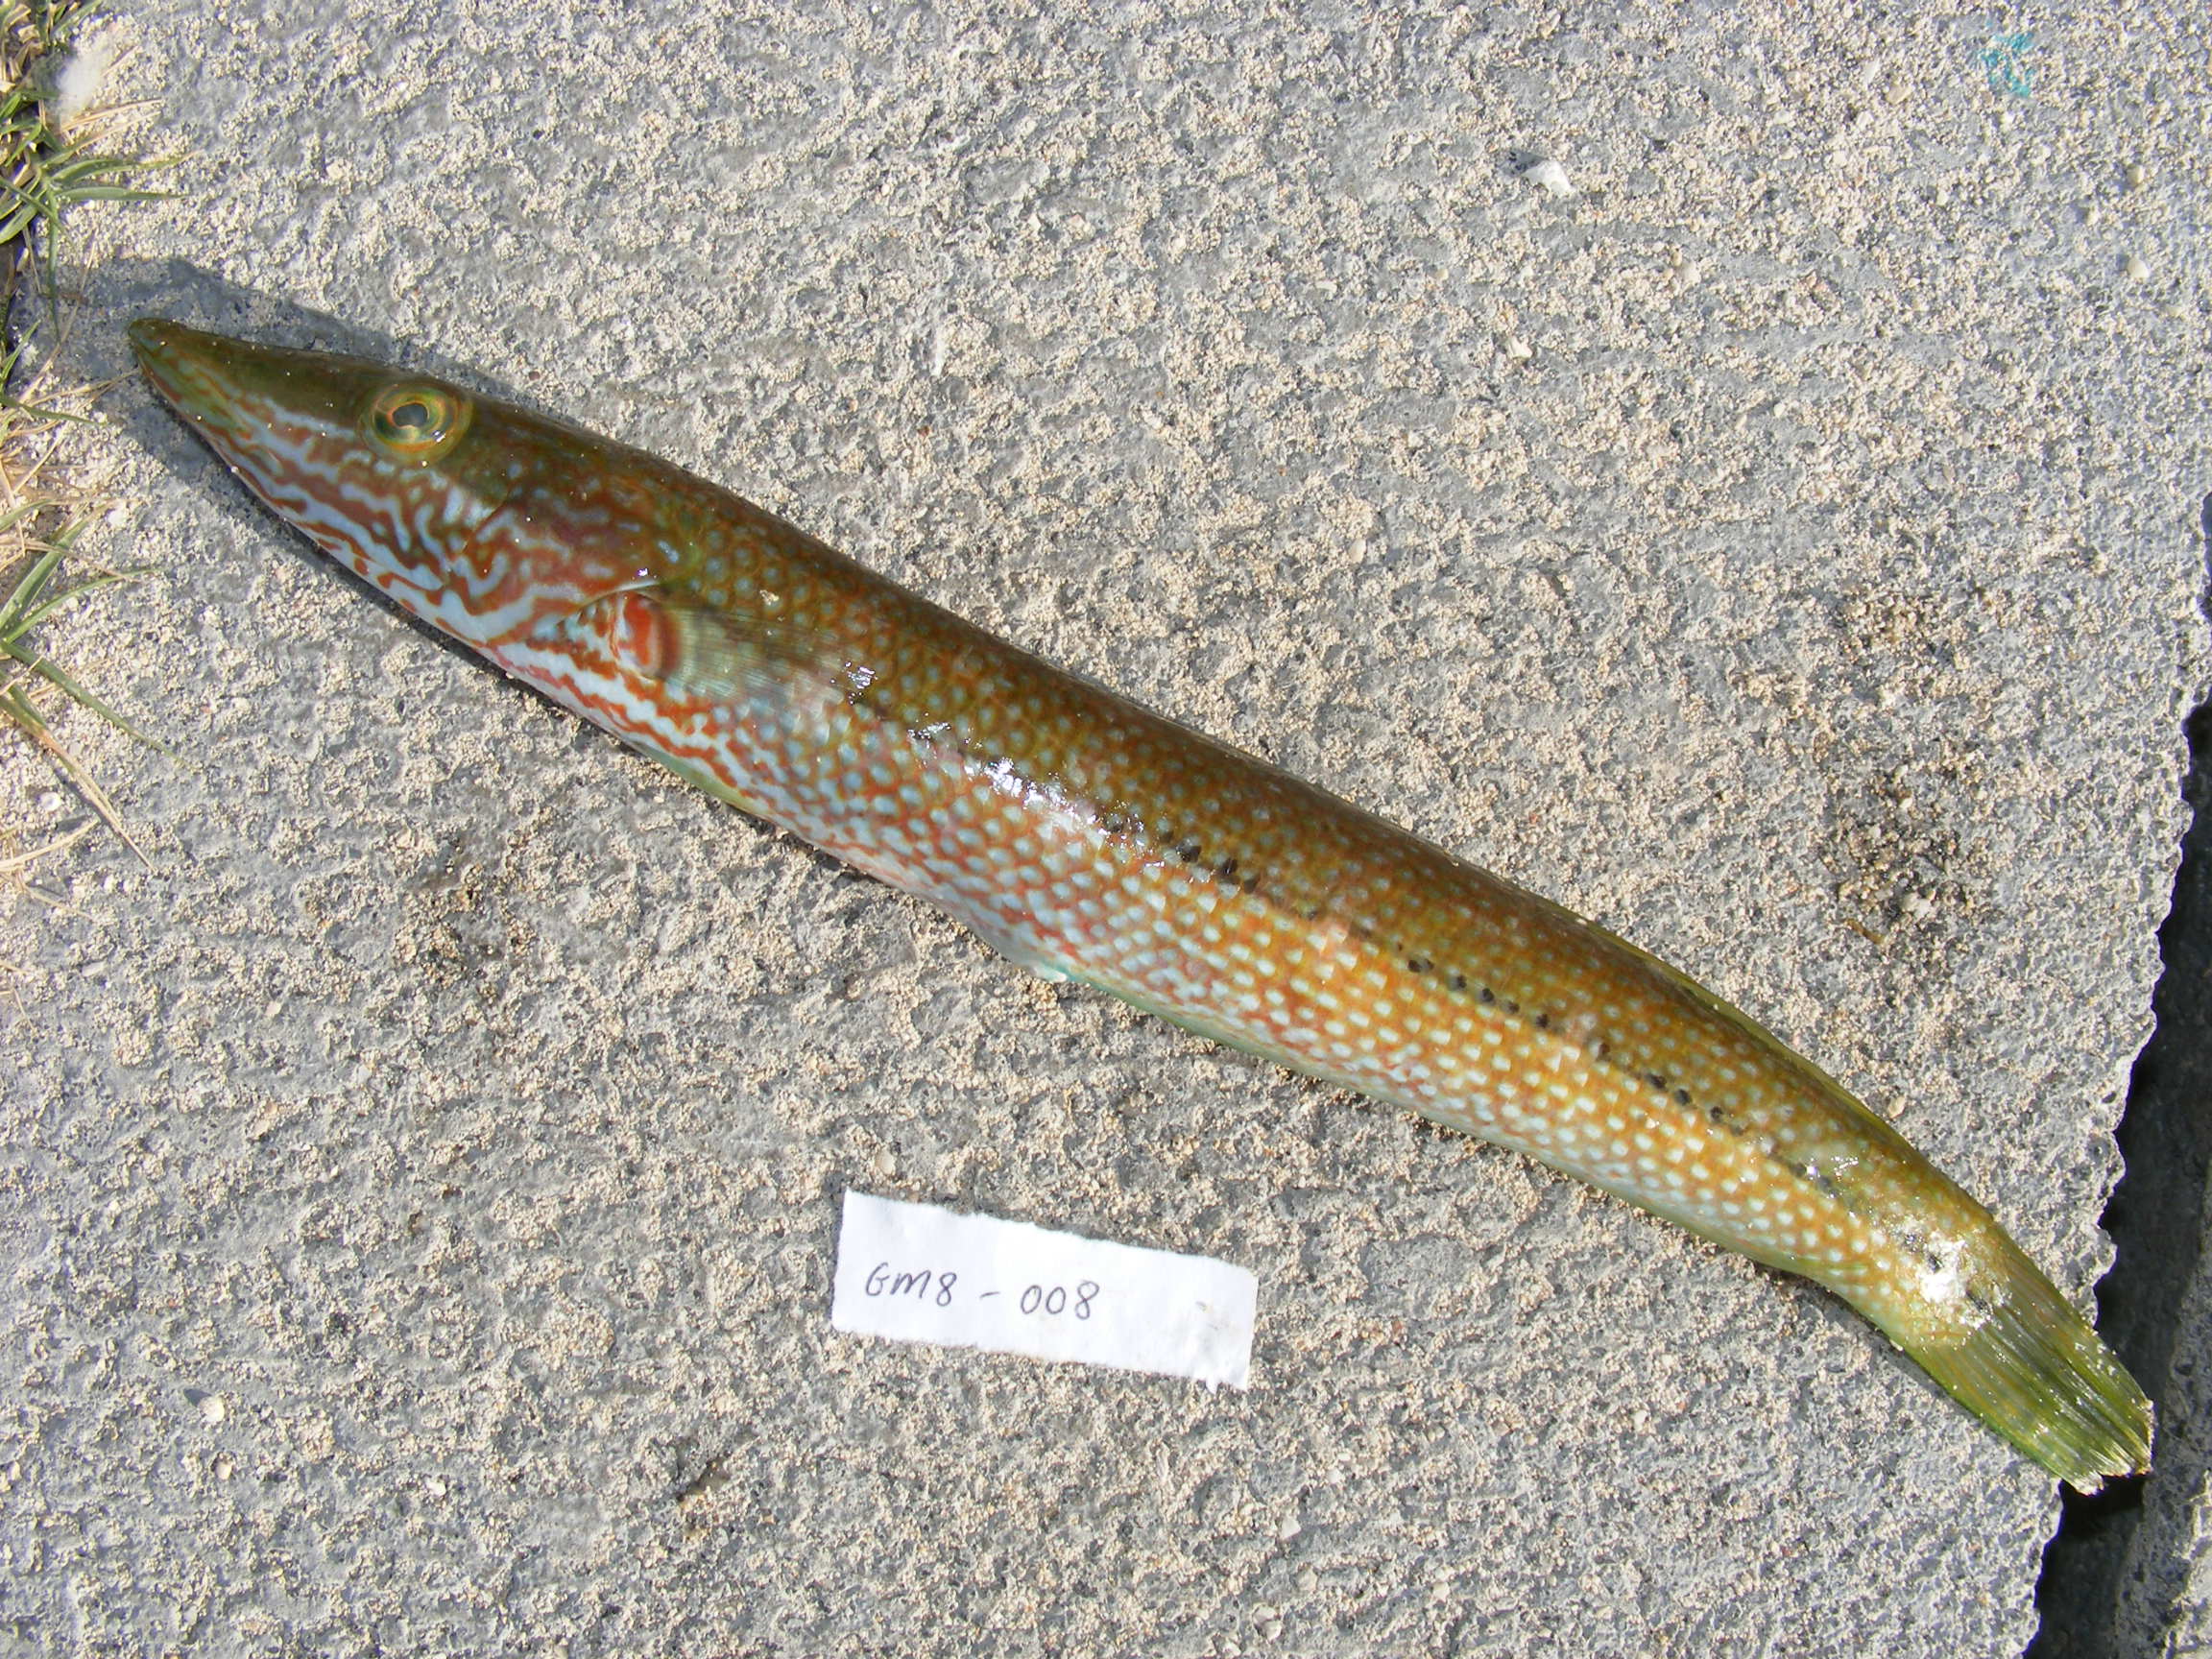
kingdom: Animalia
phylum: Chordata
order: Perciformes
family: Labridae
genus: Halichoeres
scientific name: Halichoeres hortulanus
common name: Checkerboard wrasse
